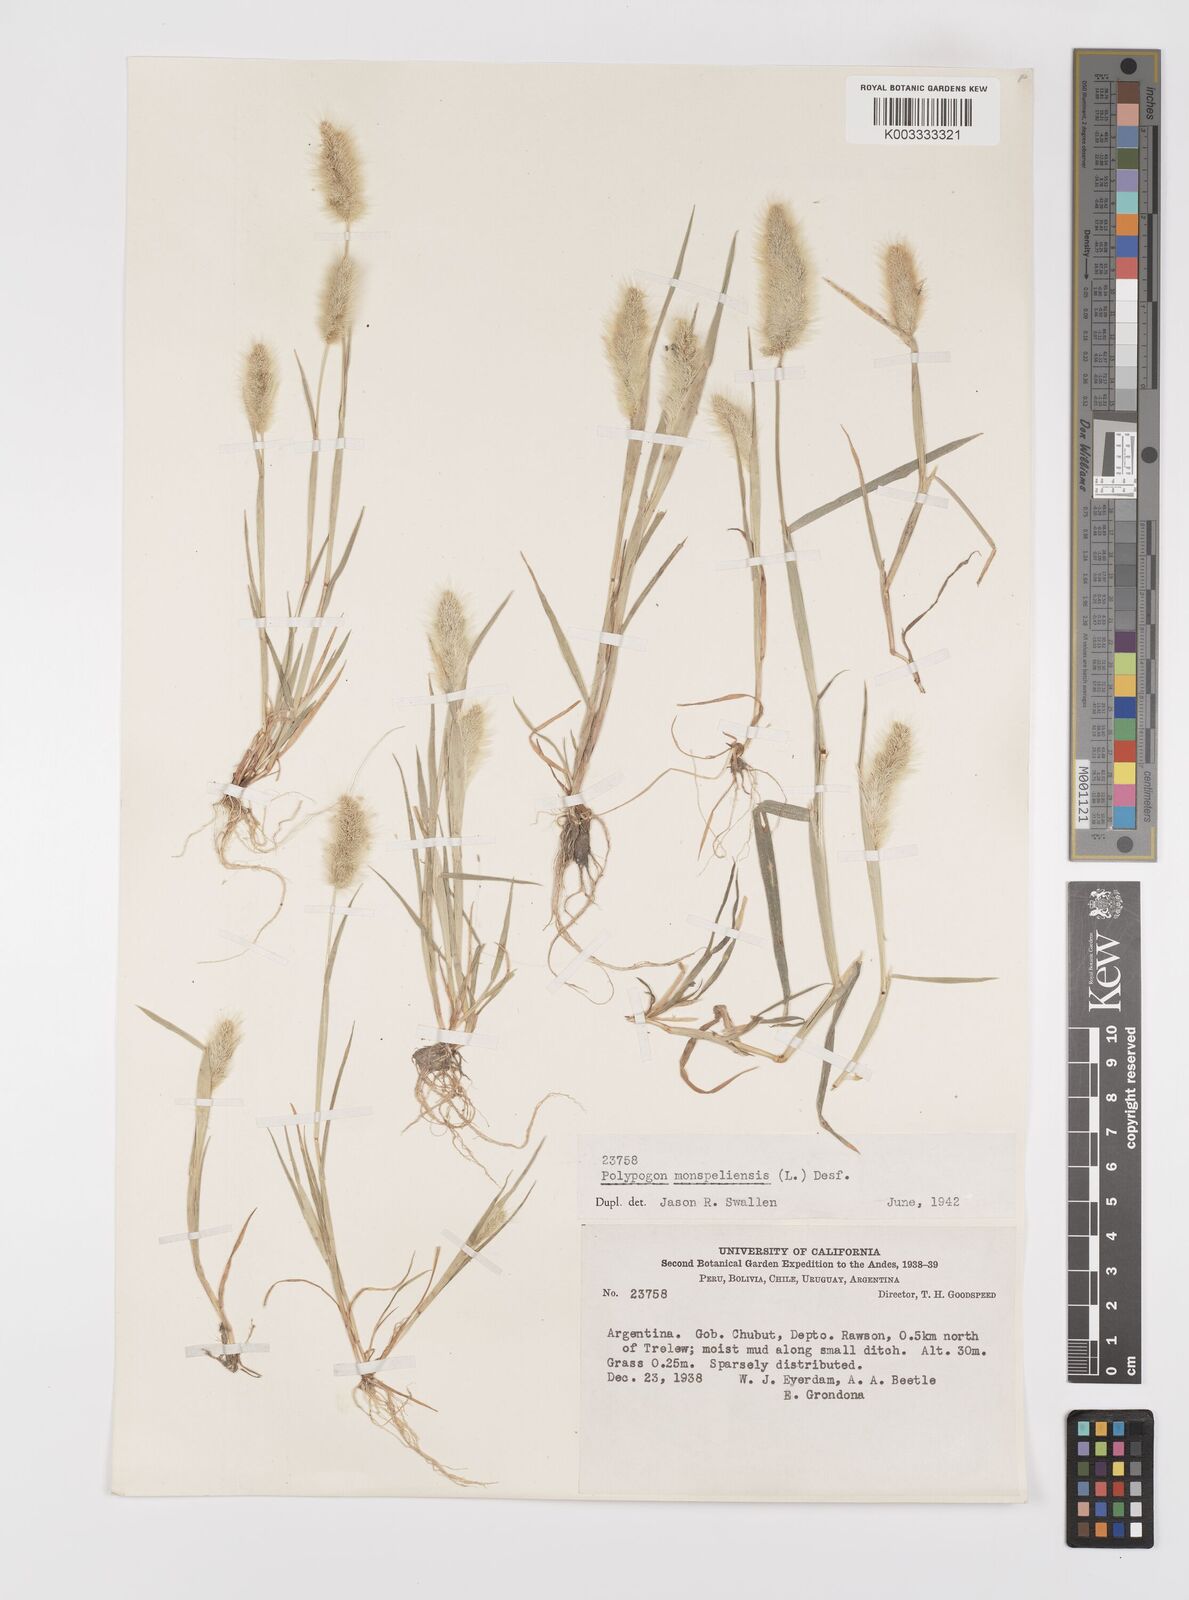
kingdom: Plantae
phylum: Tracheophyta
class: Liliopsida
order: Poales
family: Poaceae
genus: Polypogon
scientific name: Polypogon monspeliensis
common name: Annual rabbitsfoot grass
